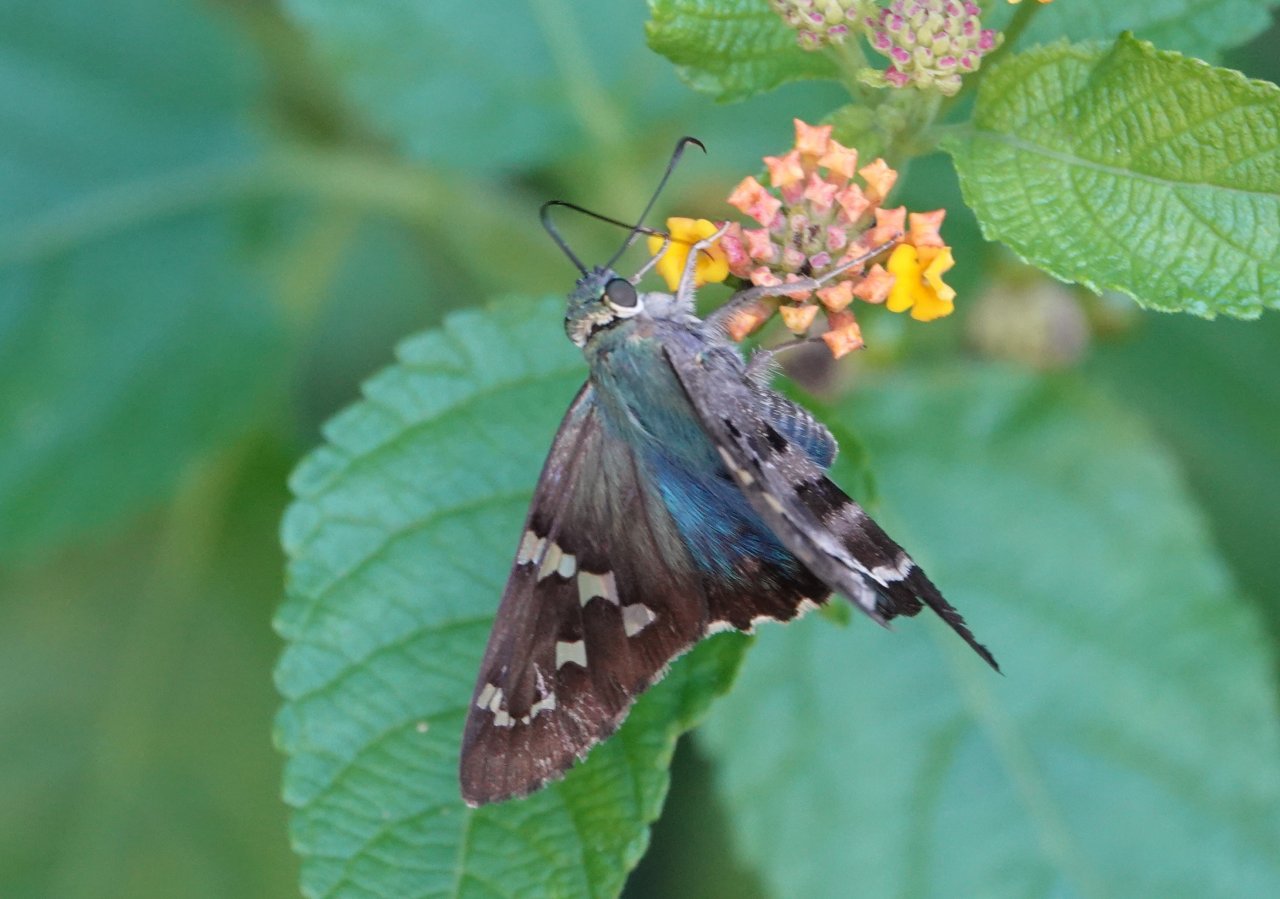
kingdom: Animalia
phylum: Arthropoda
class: Insecta
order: Lepidoptera
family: Hesperiidae
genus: Urbanus
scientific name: Urbanus proteus
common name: Long-tailed Skipper
